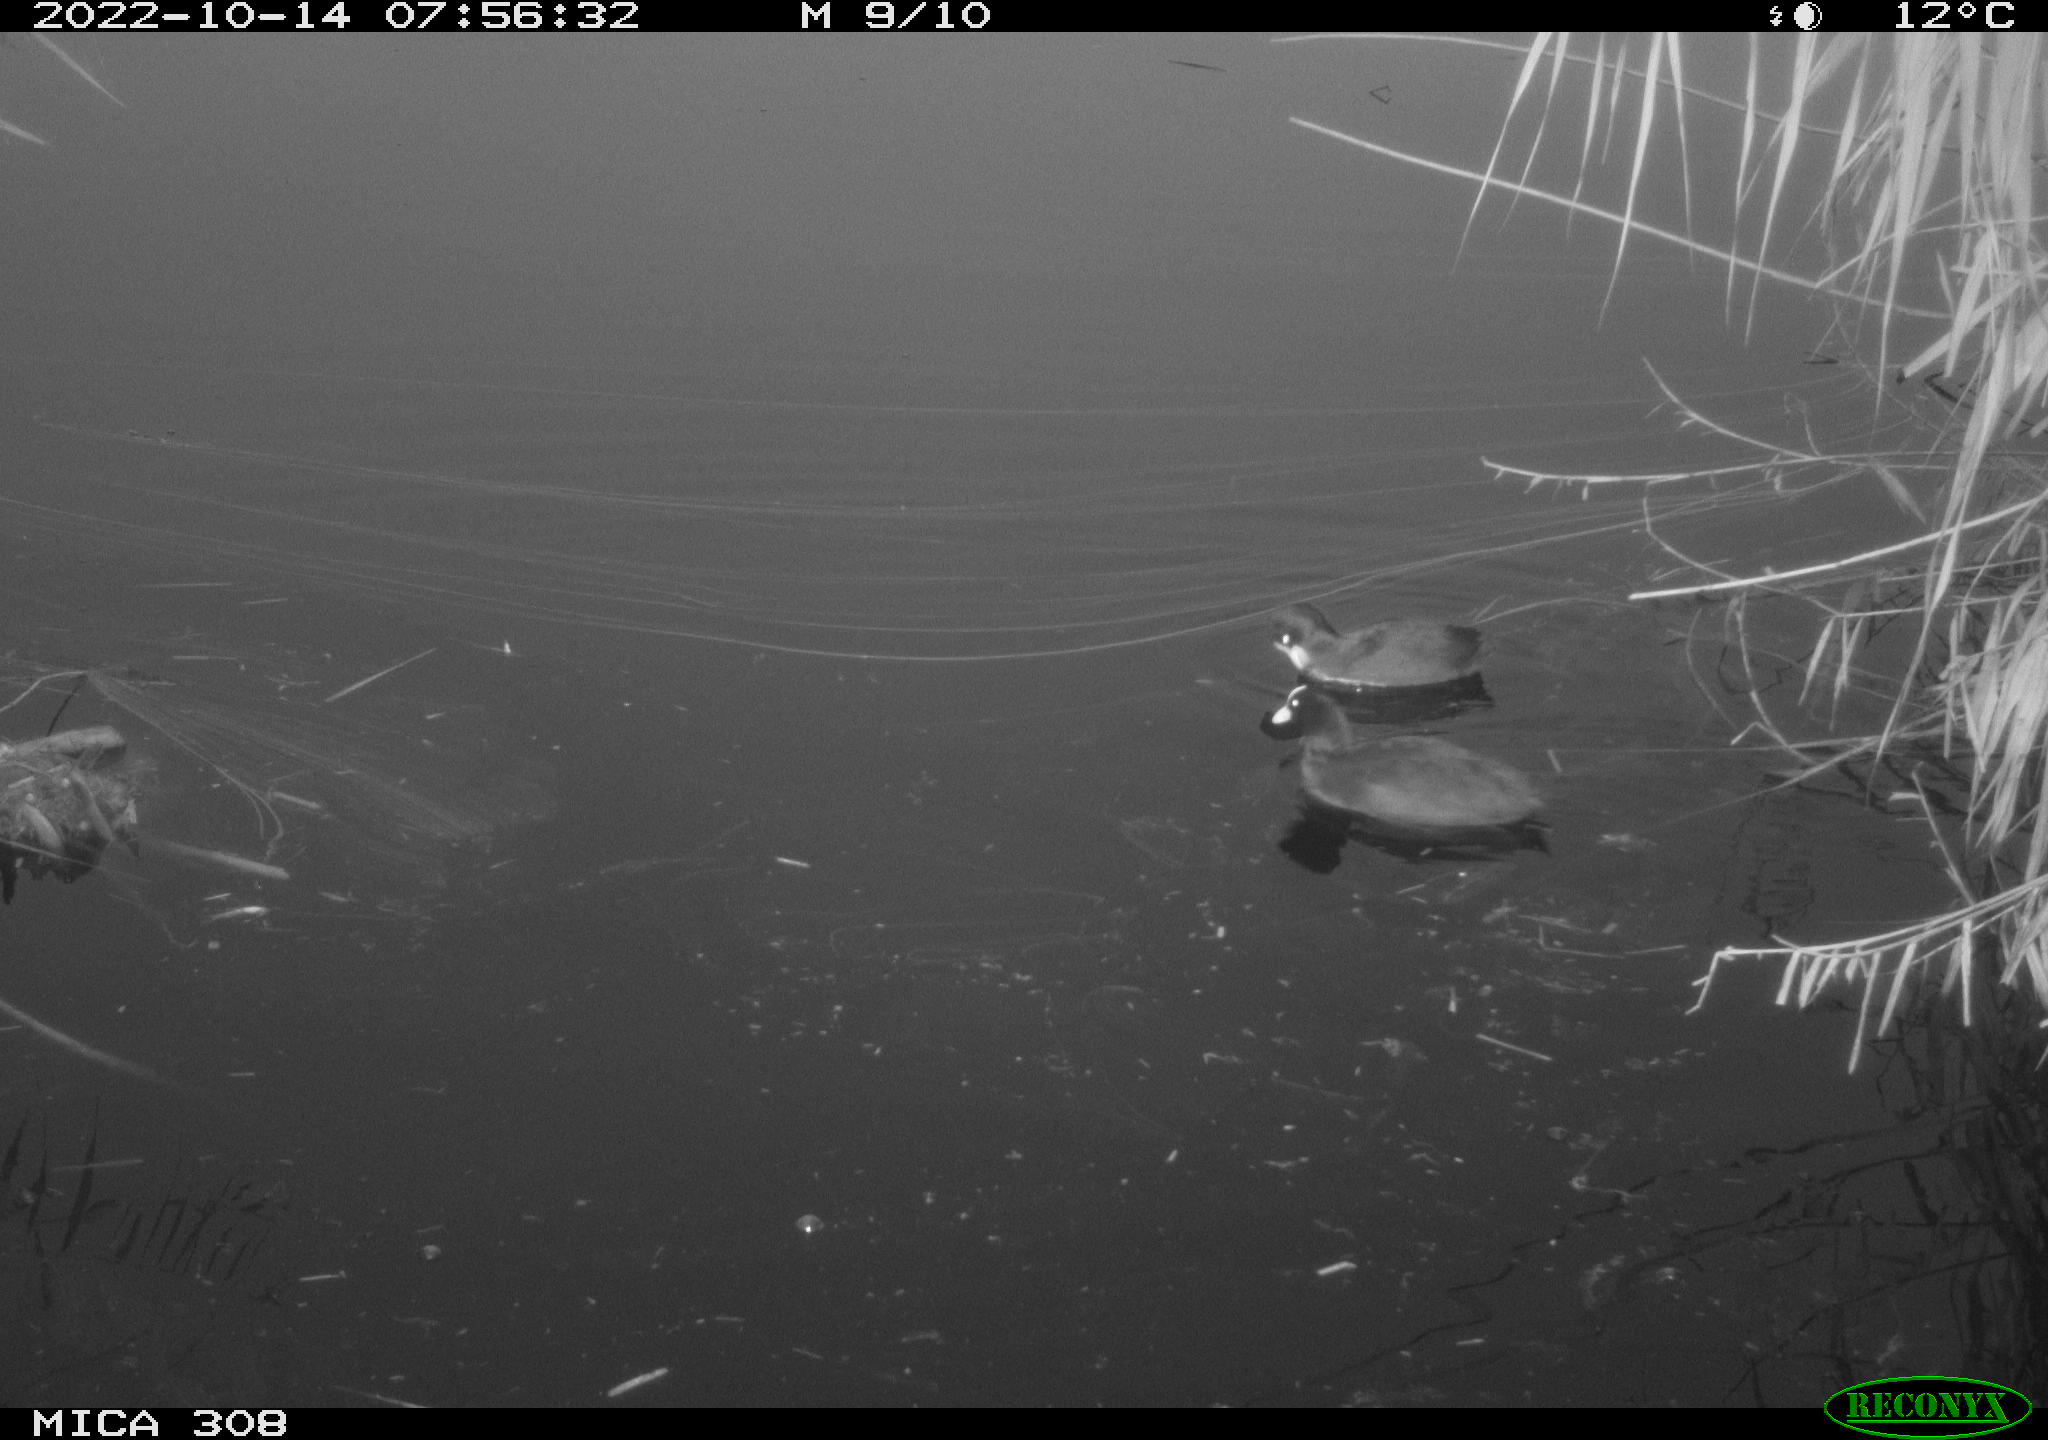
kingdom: Animalia
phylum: Chordata
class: Aves
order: Gruiformes
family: Rallidae
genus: Fulica
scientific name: Fulica atra
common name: Eurasian coot
